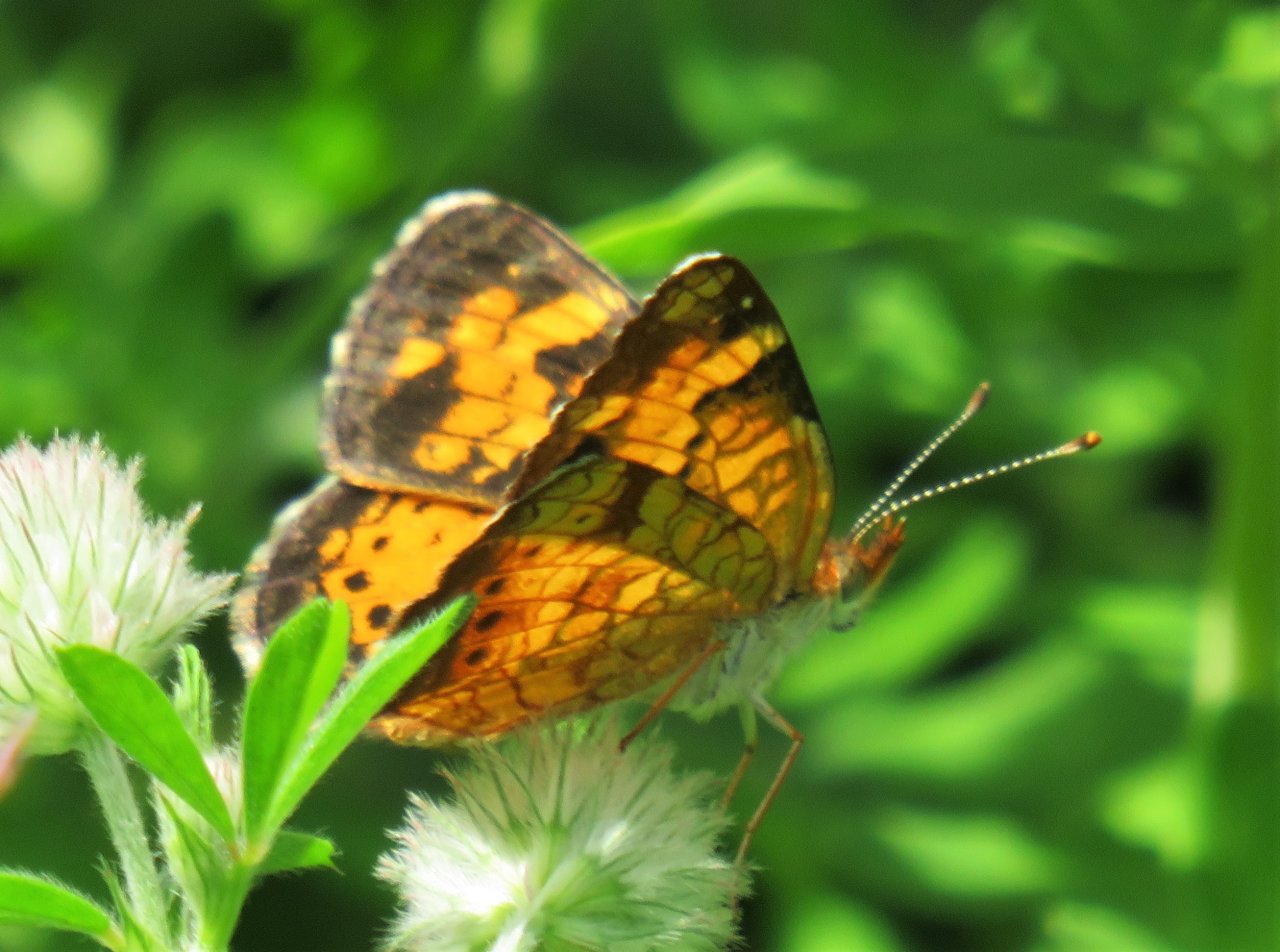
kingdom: Animalia
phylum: Arthropoda
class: Insecta
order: Lepidoptera
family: Nymphalidae
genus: Phyciodes
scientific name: Phyciodes tharos
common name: Northern Crescent
